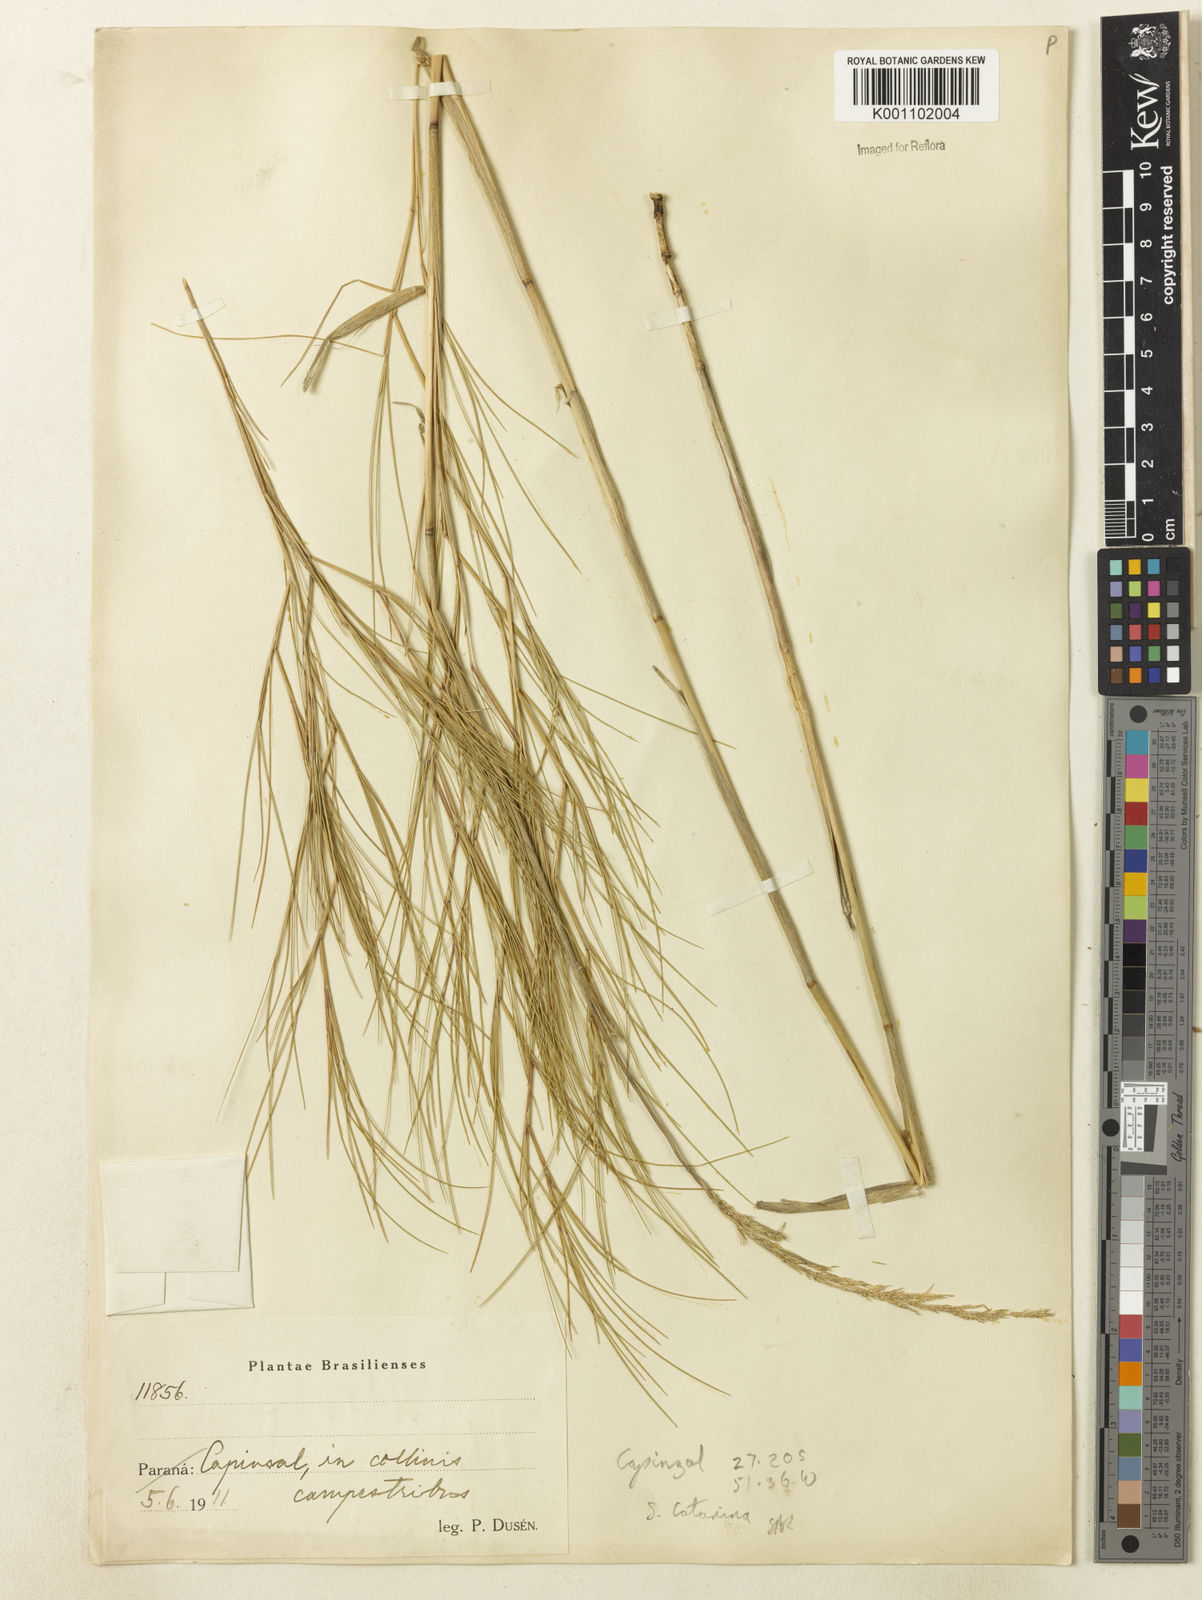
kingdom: Plantae
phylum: Tracheophyta
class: Liliopsida
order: Poales
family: Poaceae
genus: Muhlenbergia
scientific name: Muhlenbergia
